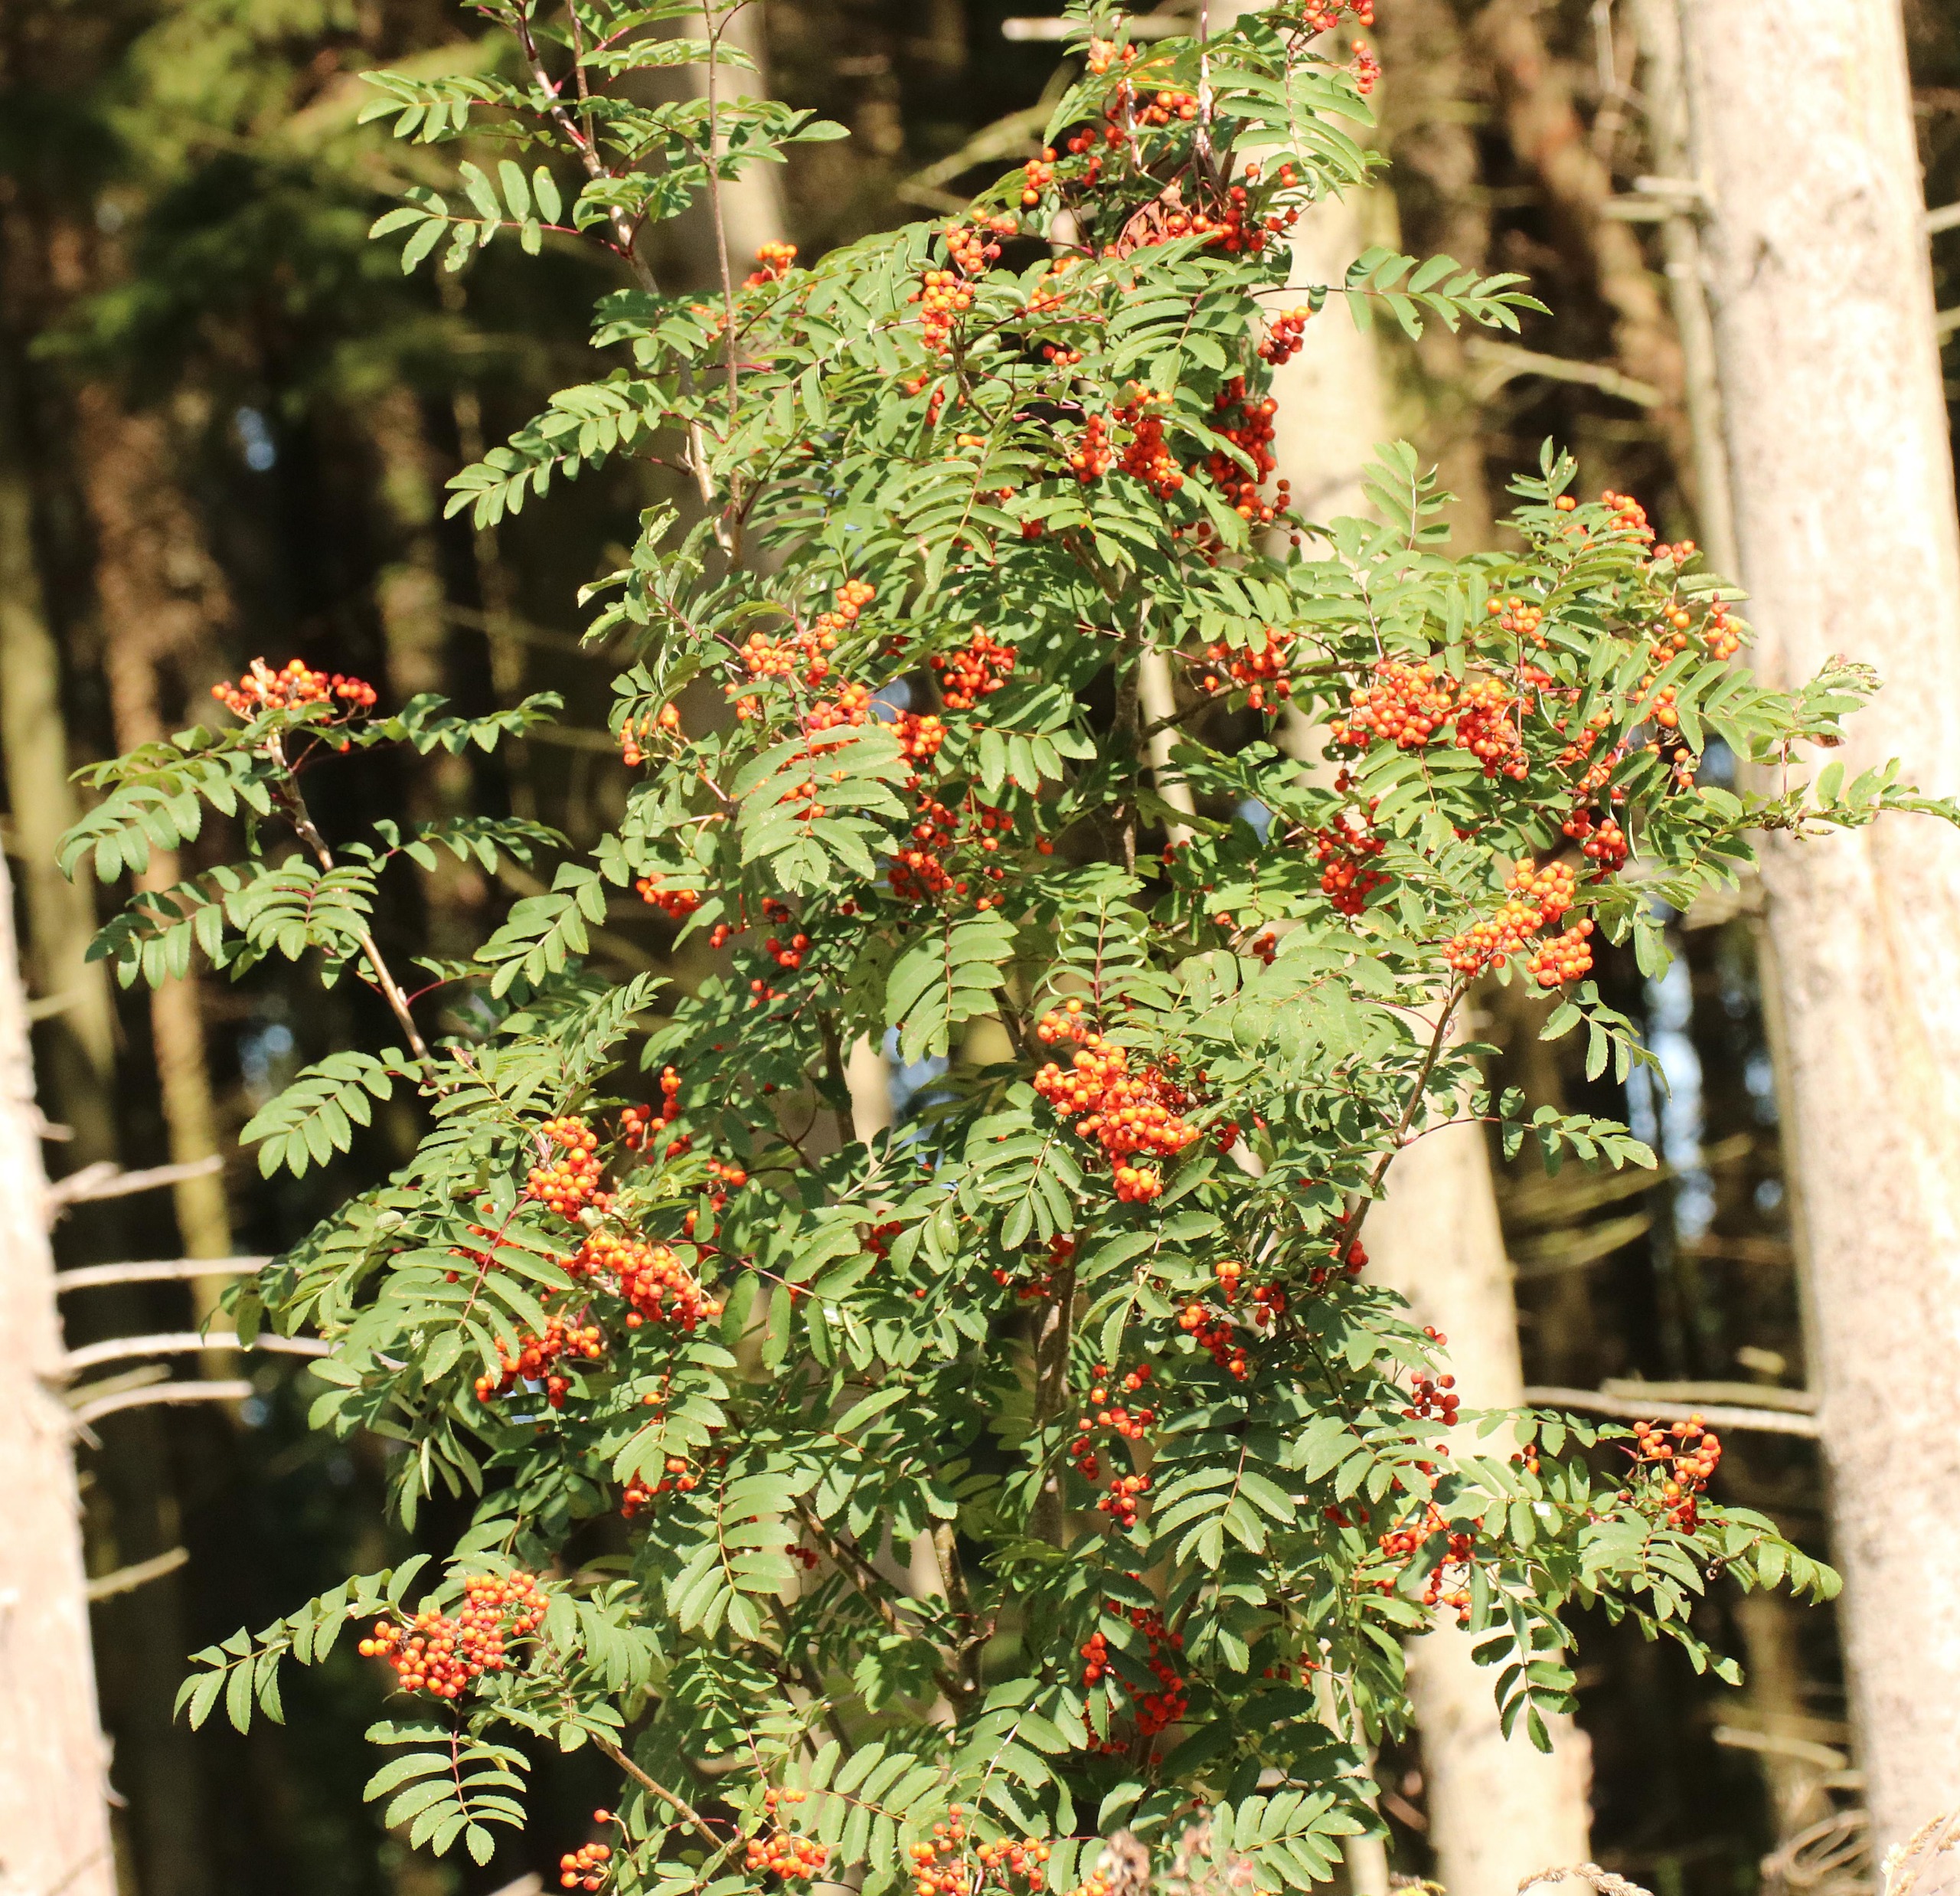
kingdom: Plantae
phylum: Tracheophyta
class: Magnoliopsida
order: Rosales
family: Rosaceae
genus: Sorbus
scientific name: Sorbus aucuparia
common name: Almindelig røn
